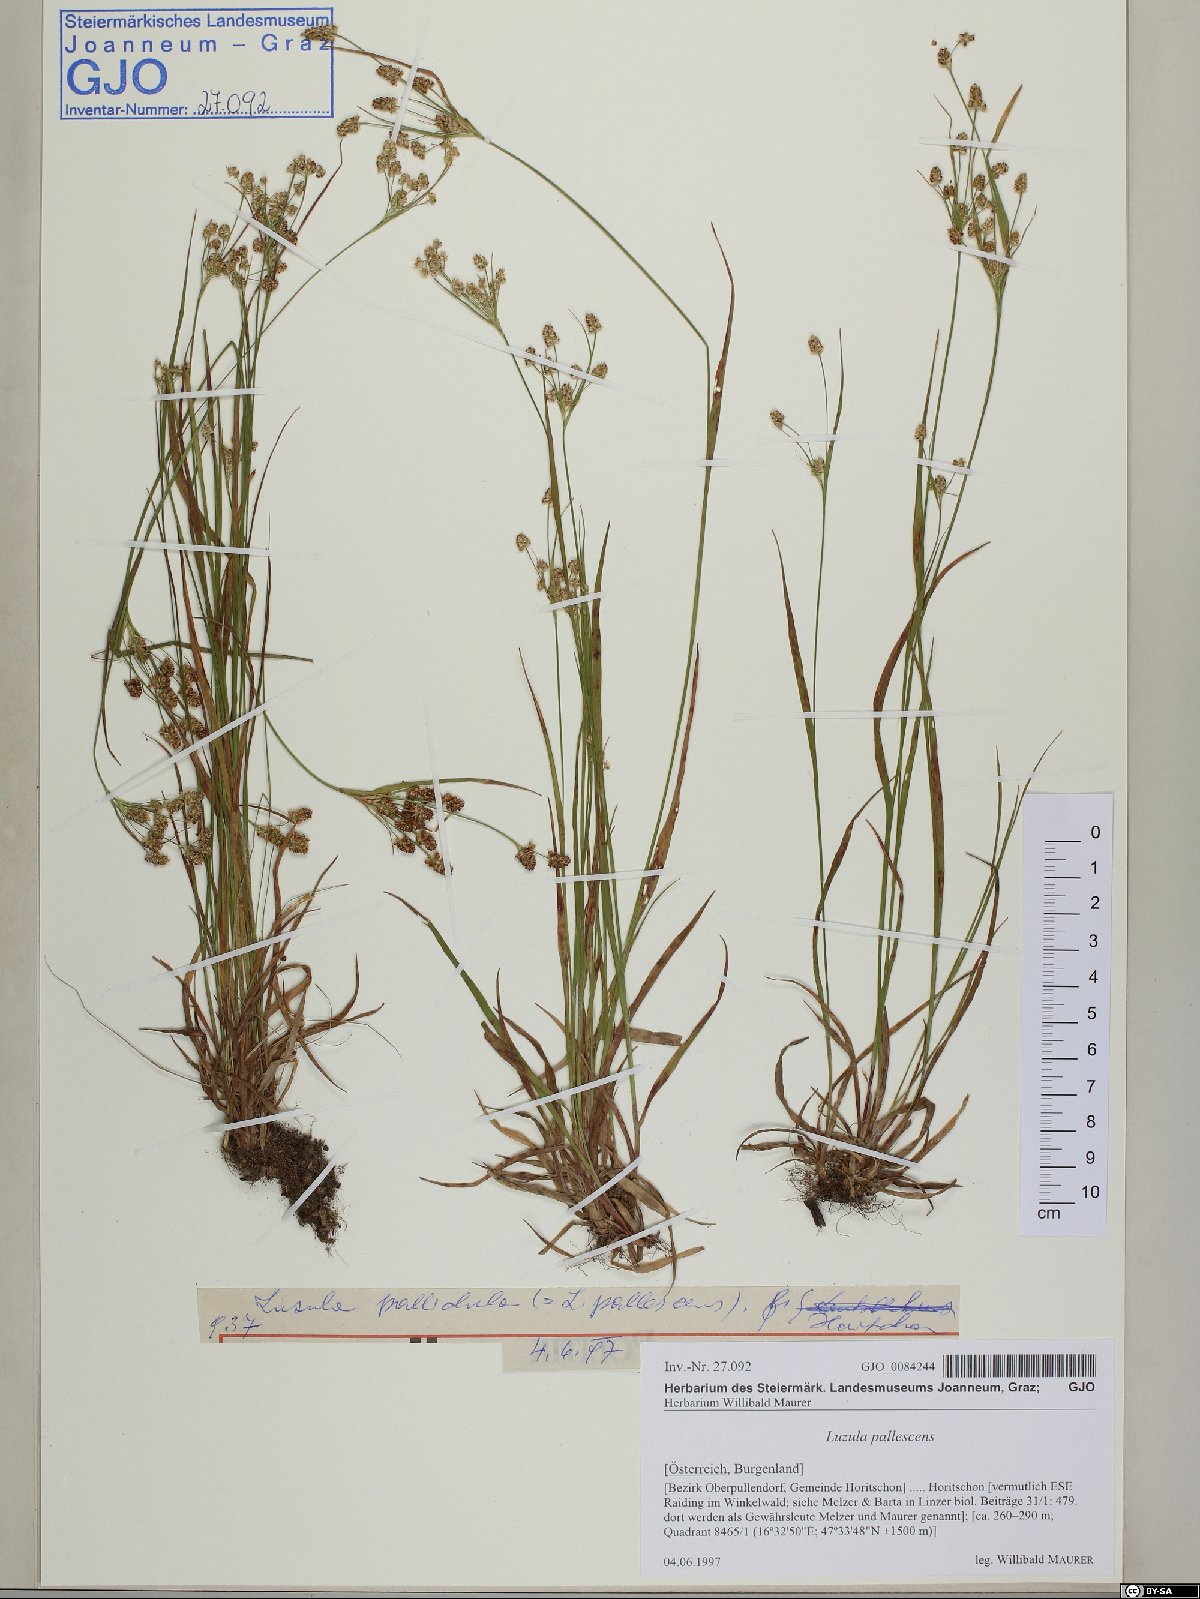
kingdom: Plantae
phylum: Tracheophyta
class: Liliopsida
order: Poales
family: Juncaceae
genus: Luzula
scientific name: Luzula pallescens
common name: Fen wood-rush
